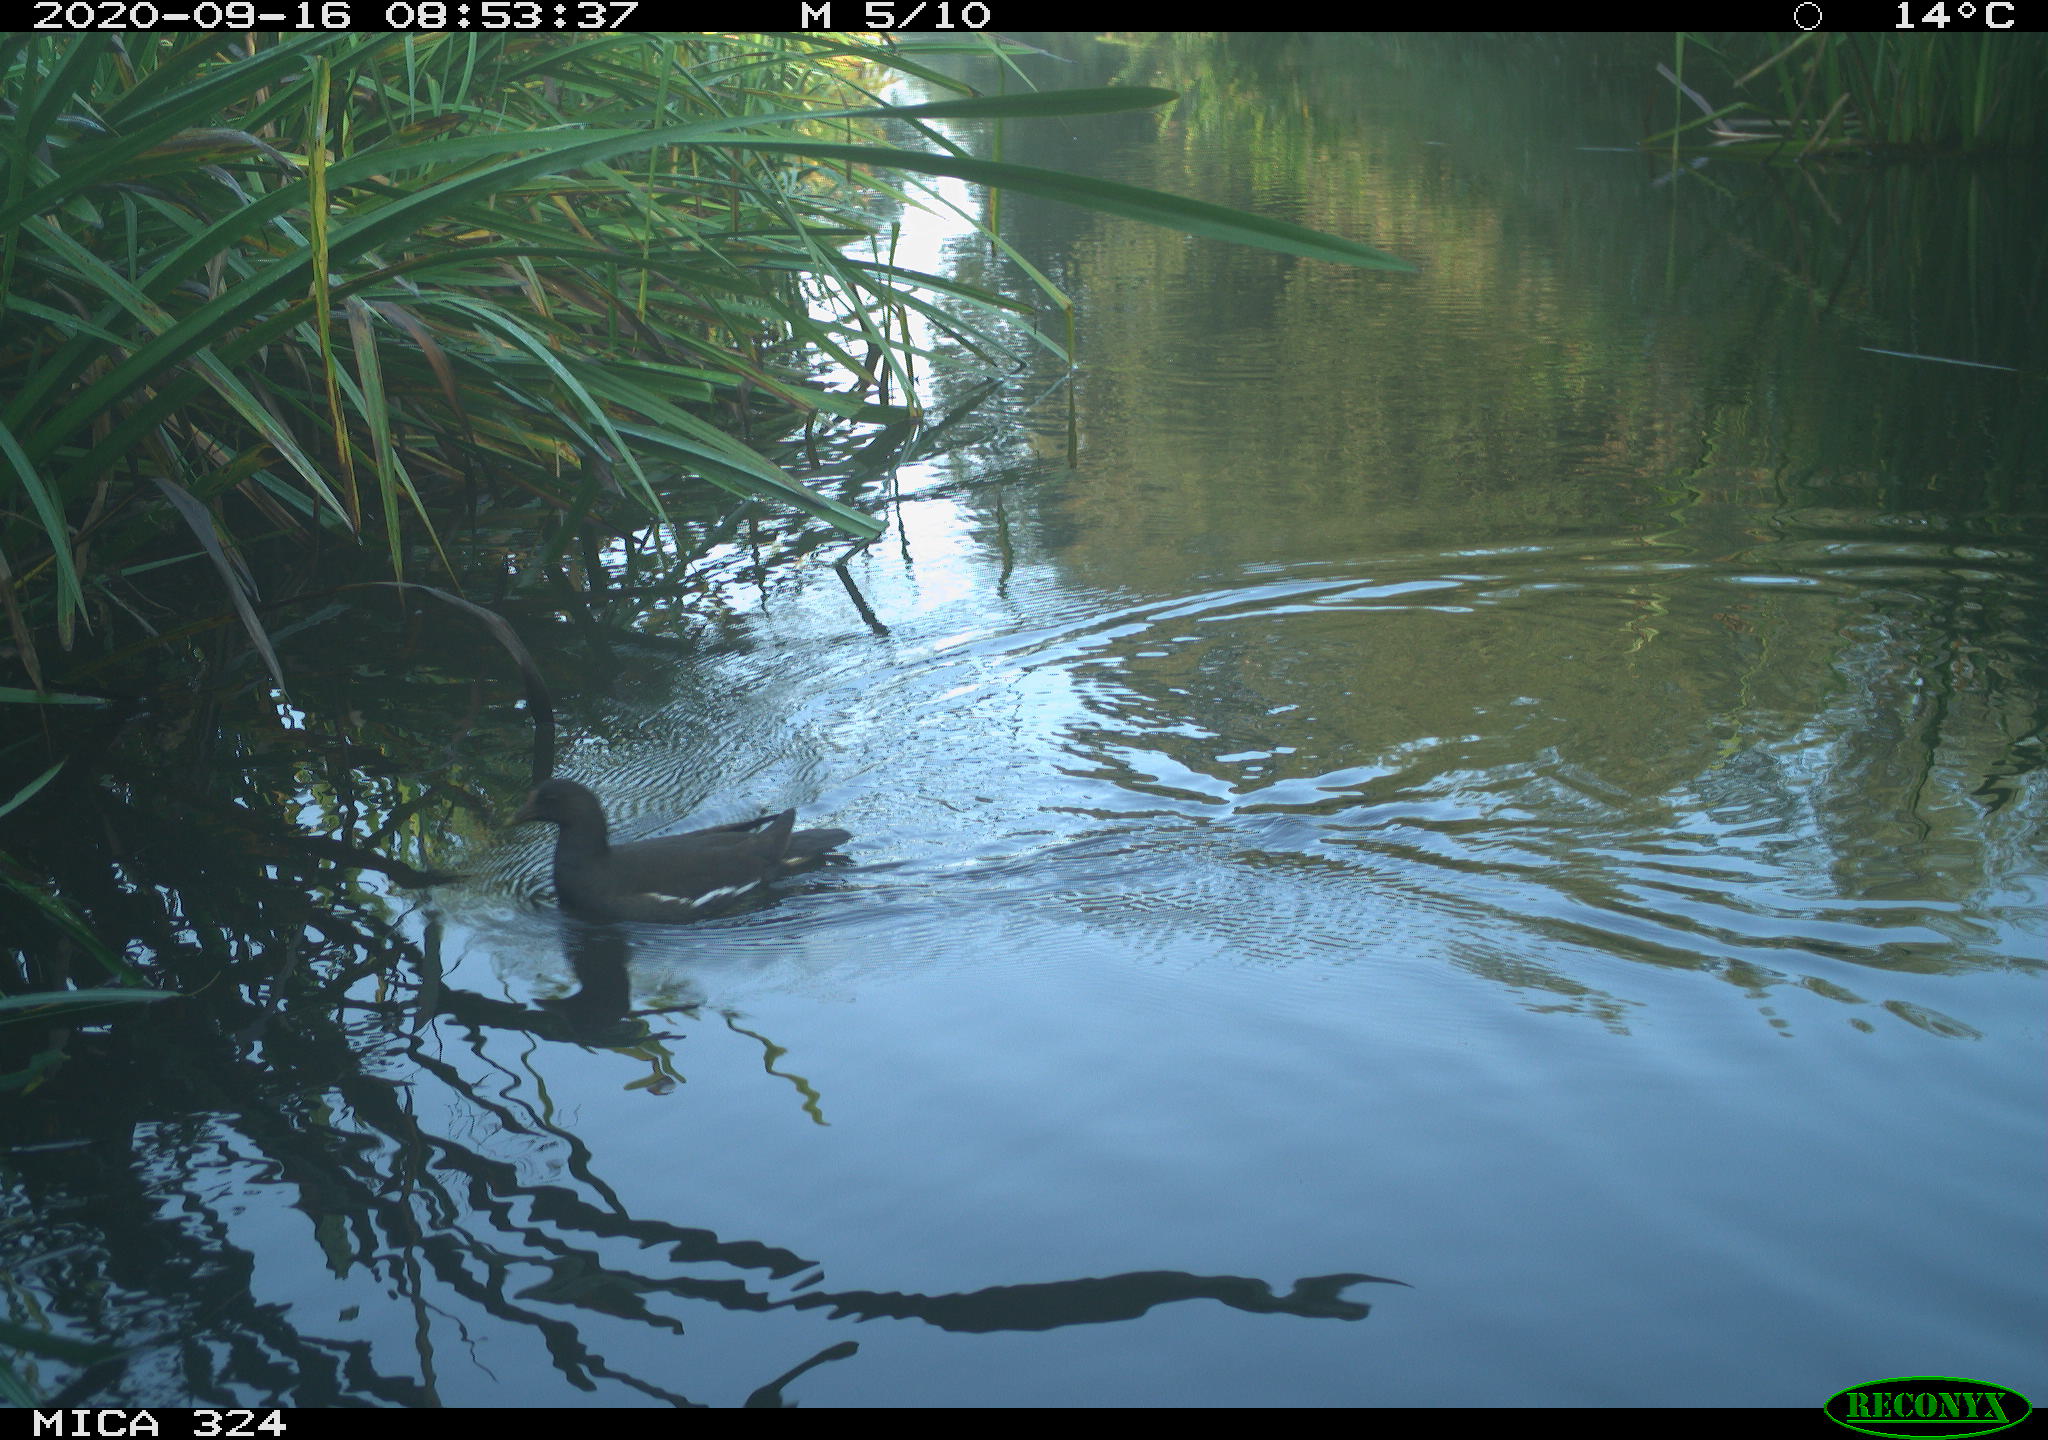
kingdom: Animalia
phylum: Chordata
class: Aves
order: Gruiformes
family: Rallidae
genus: Gallinula
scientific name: Gallinula chloropus
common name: Common moorhen
